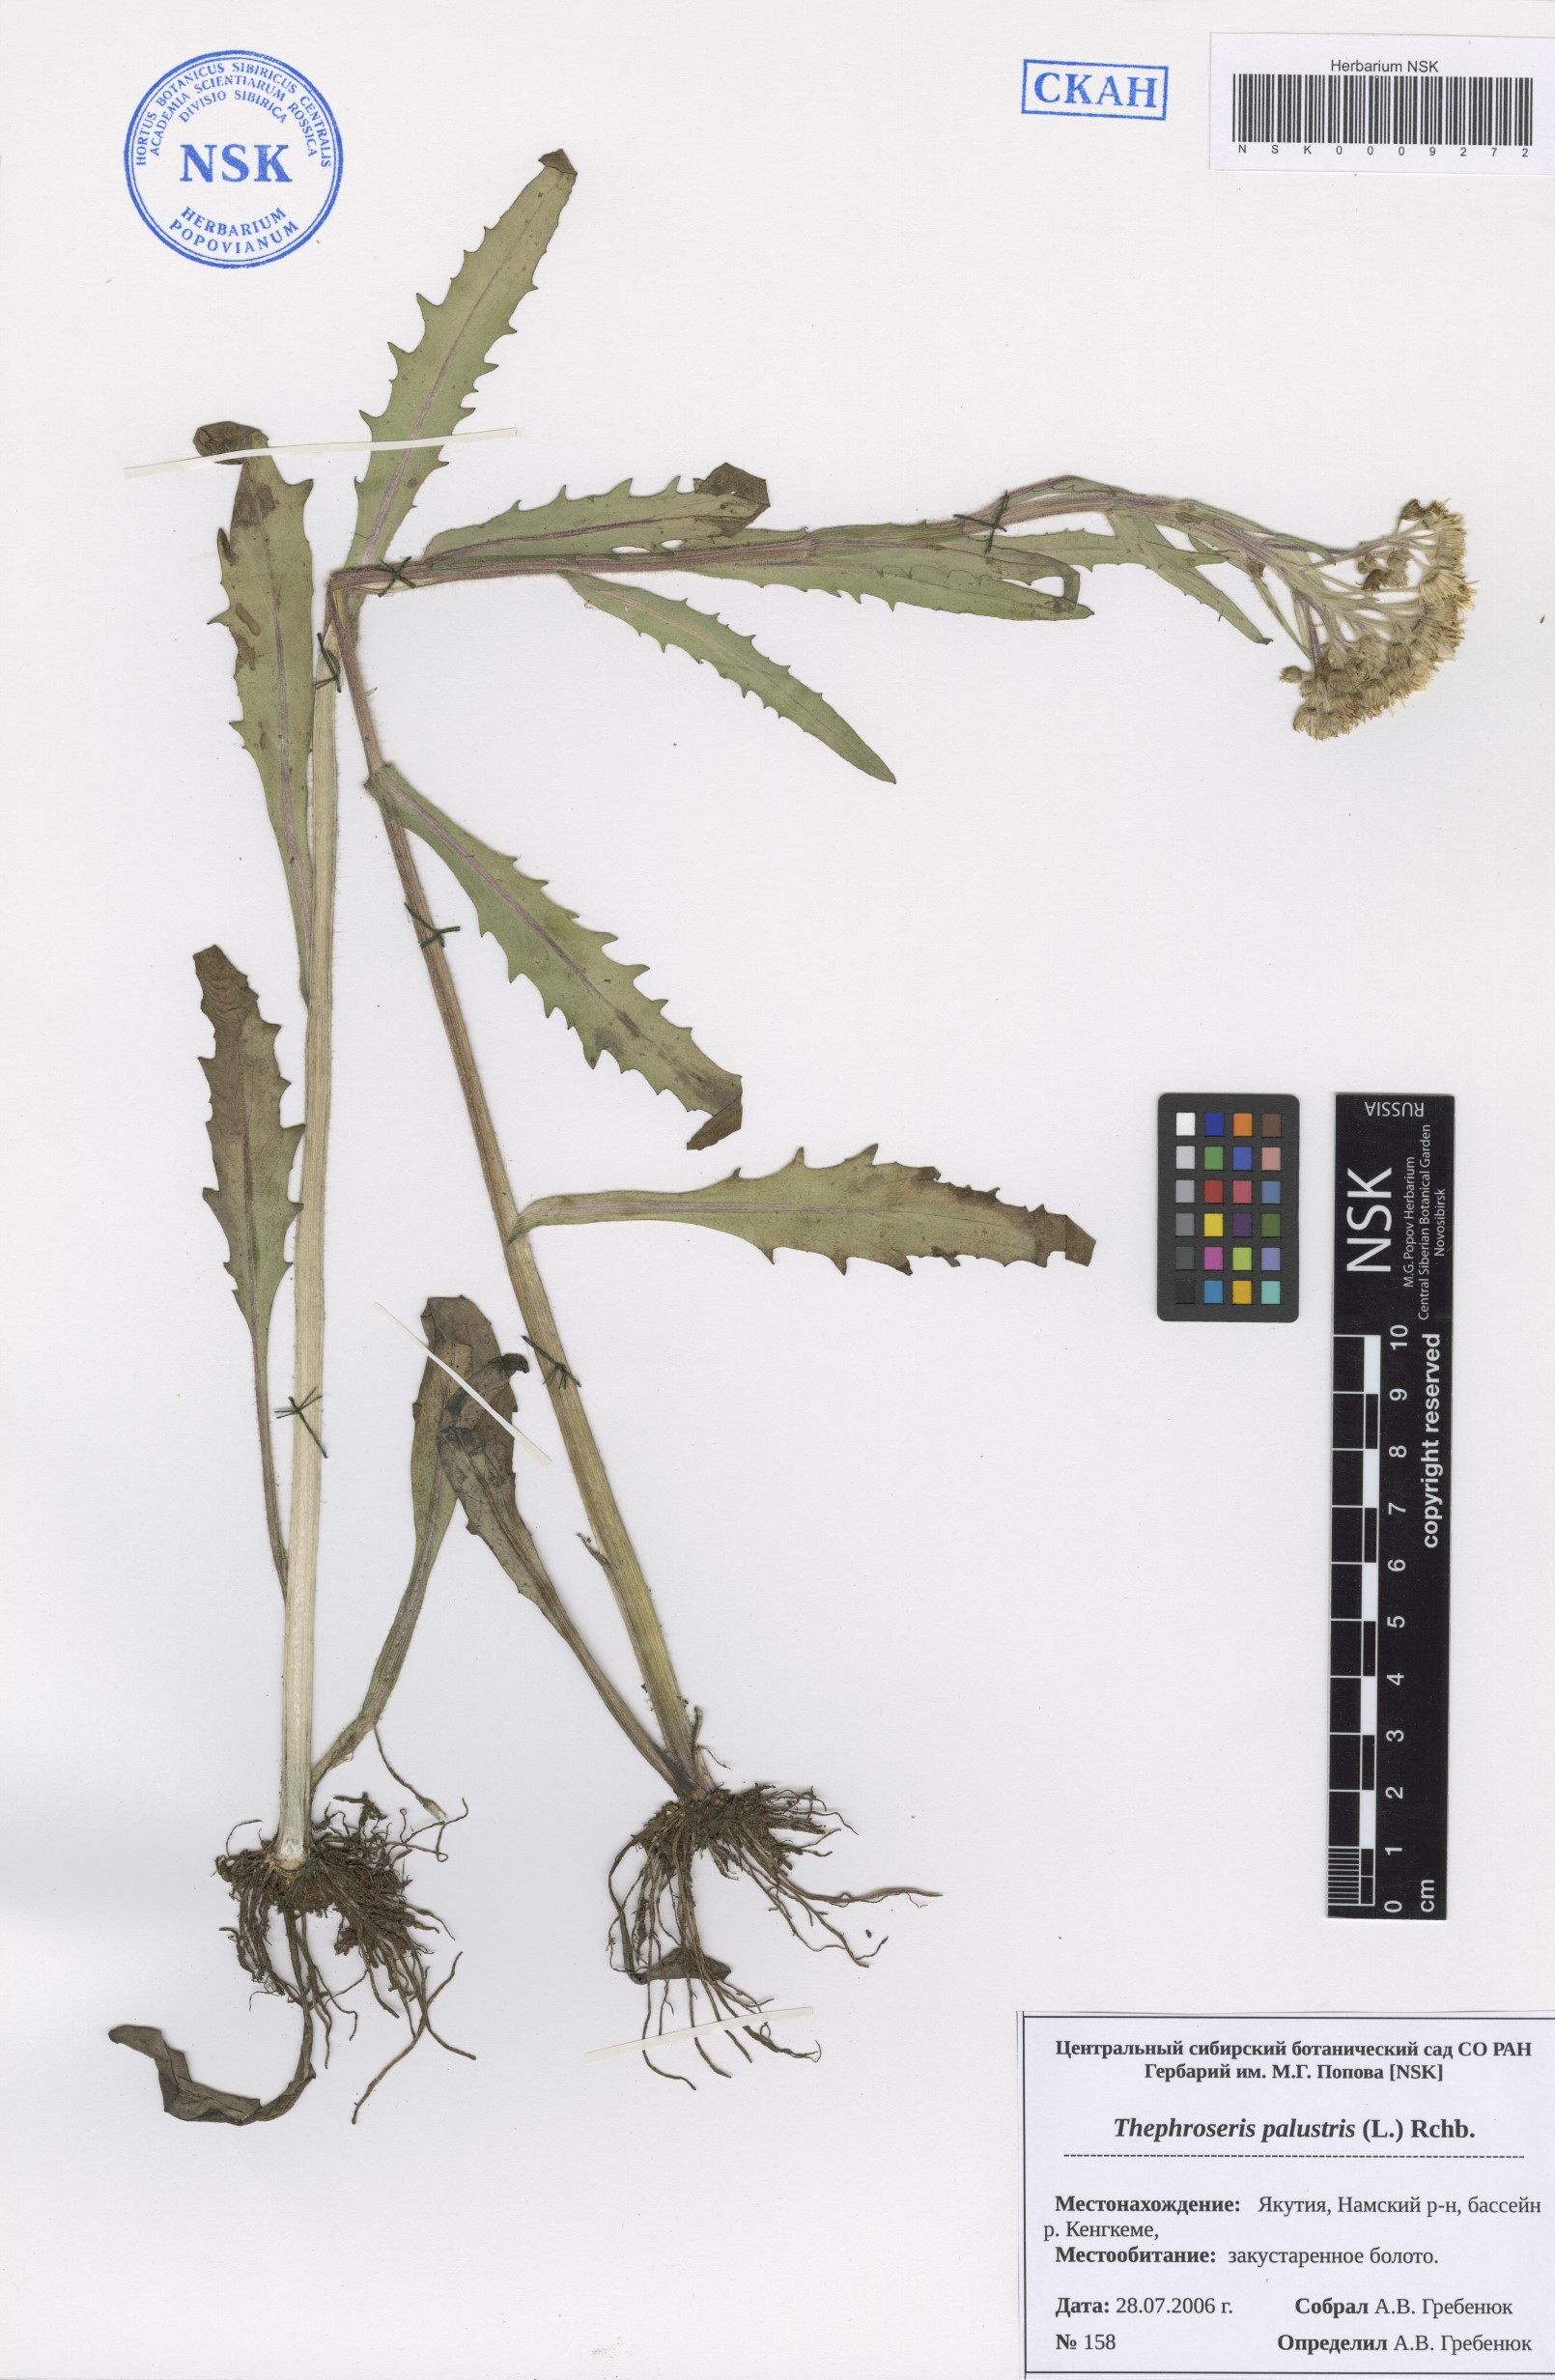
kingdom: Plantae
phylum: Tracheophyta
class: Magnoliopsida
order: Asterales
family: Asteraceae
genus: Tephroseris
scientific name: Tephroseris palustris
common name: Marsh fleawort
